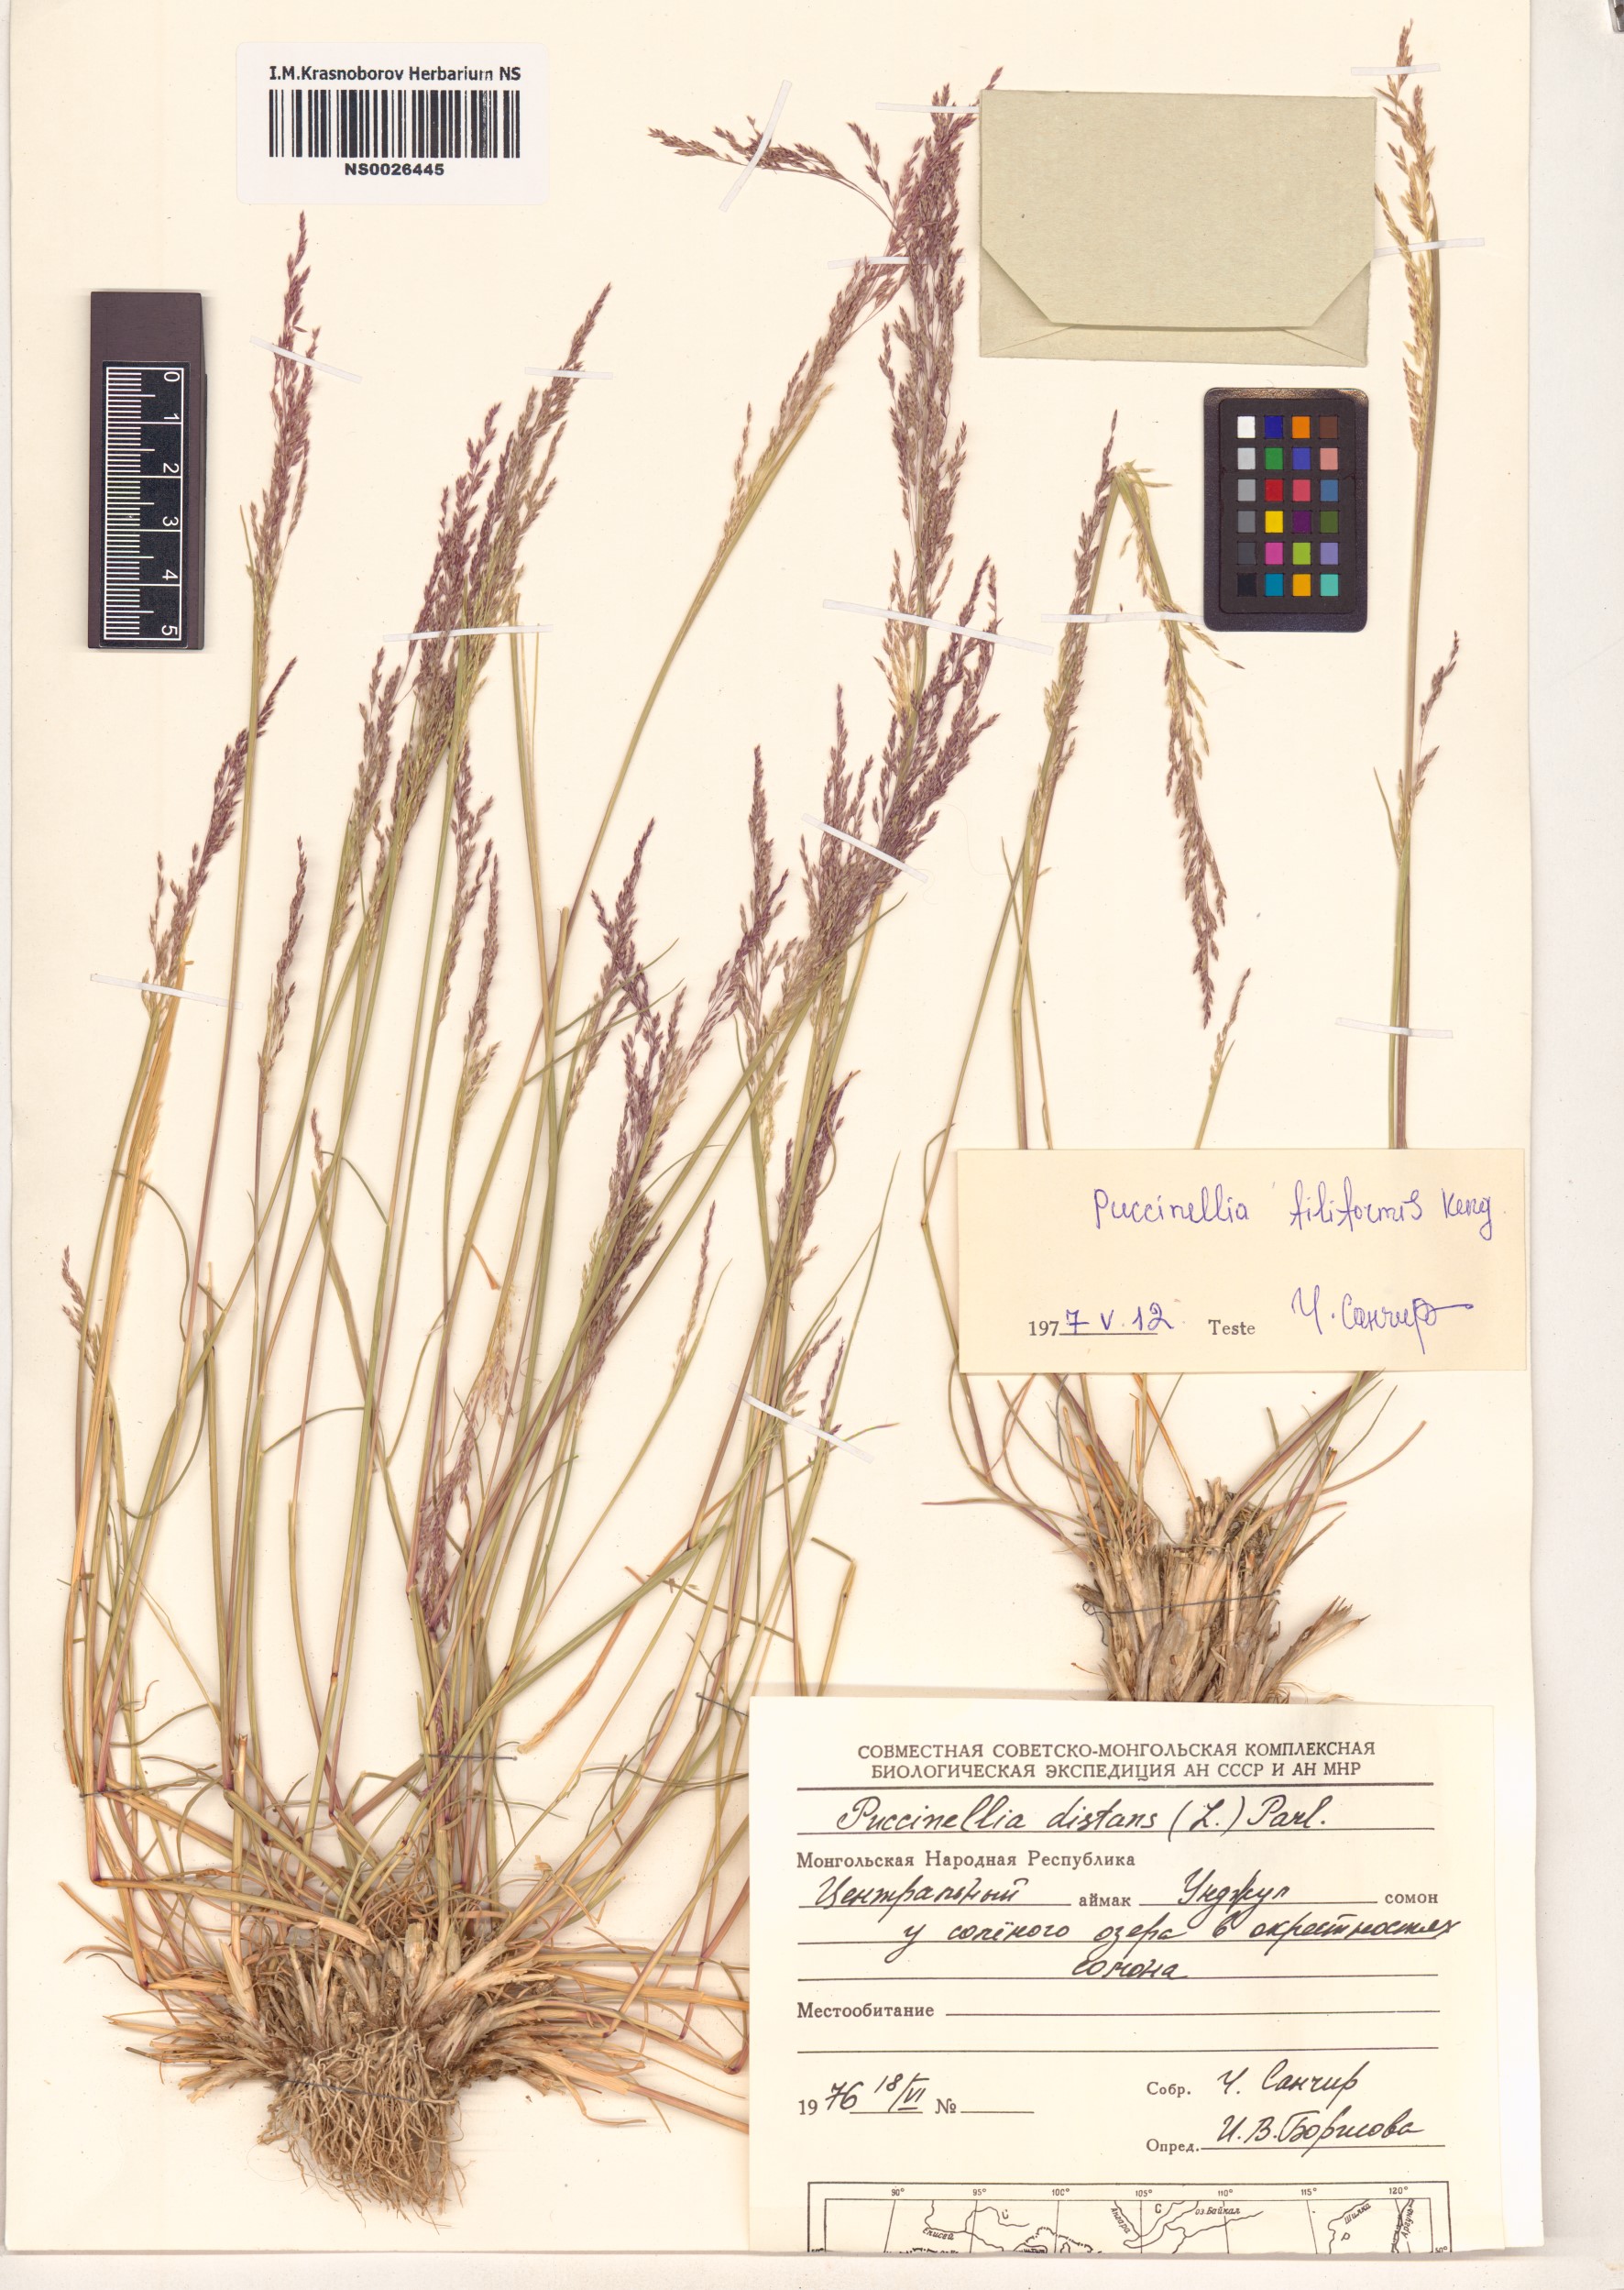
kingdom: Plantae
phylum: Tracheophyta
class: Liliopsida
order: Poales
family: Poaceae
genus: Puccinellia
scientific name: Puccinellia filifolia
